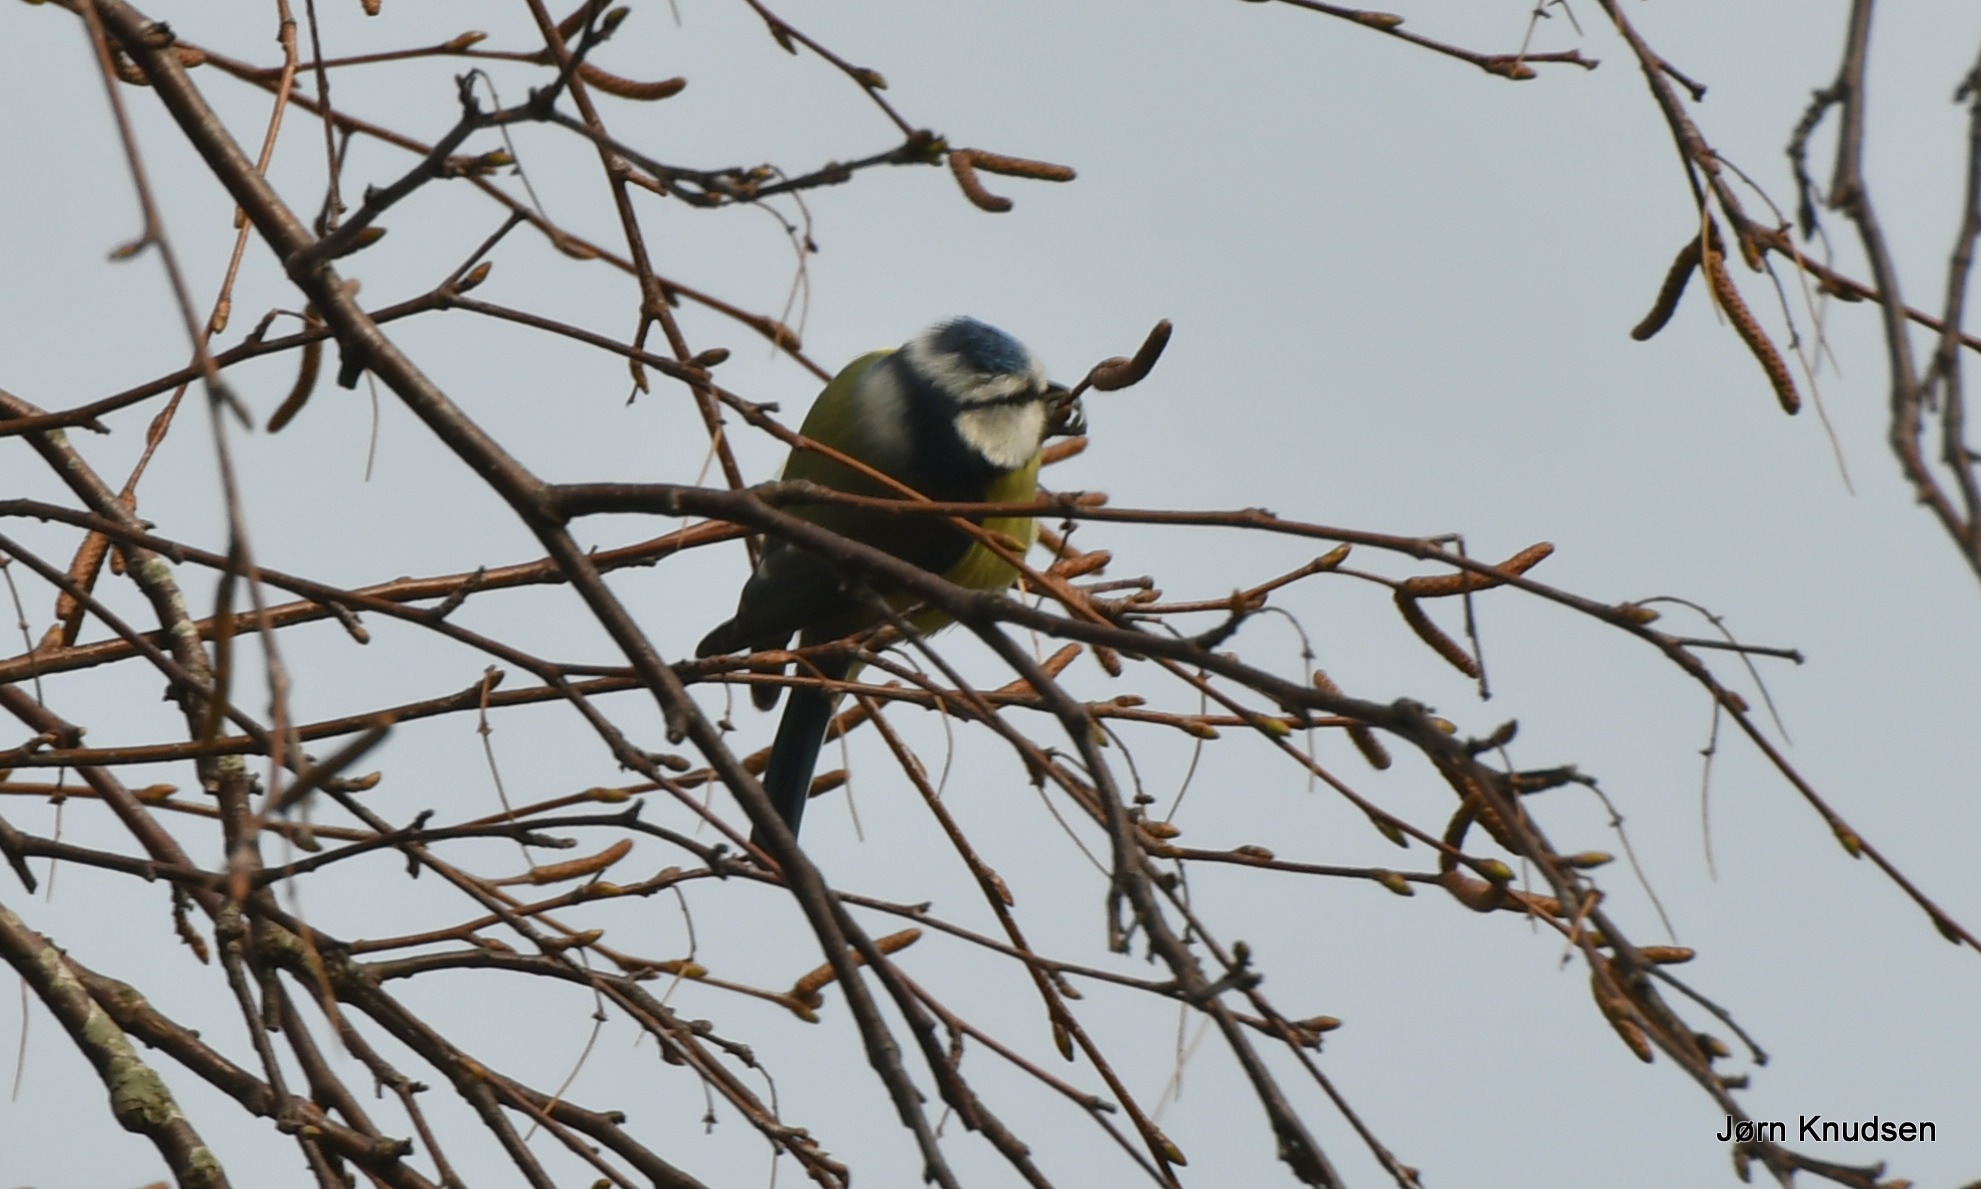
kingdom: Animalia
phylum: Chordata
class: Aves
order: Passeriformes
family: Paridae
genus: Cyanistes
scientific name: Cyanistes caeruleus
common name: Blåmejse
